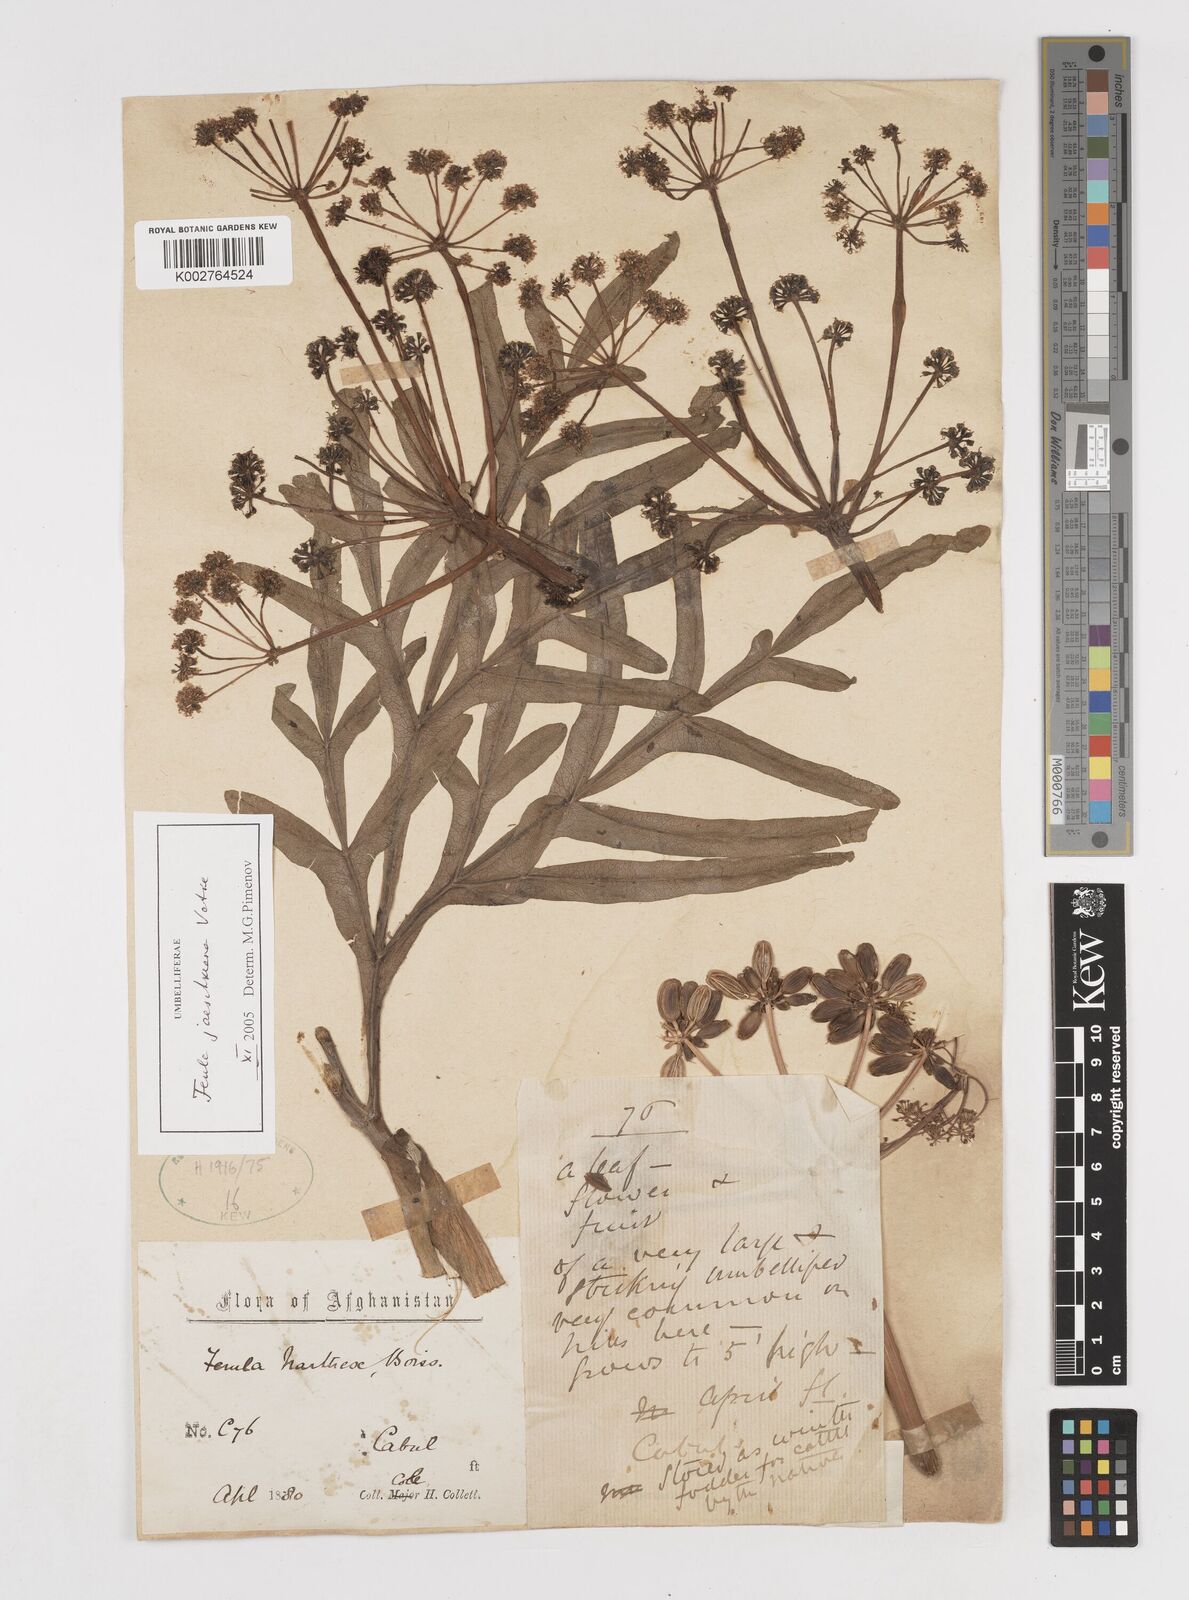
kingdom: Plantae
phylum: Tracheophyta
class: Magnoliopsida
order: Apiales
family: Apiaceae
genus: Ferula
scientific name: Ferula jaeschkeana
